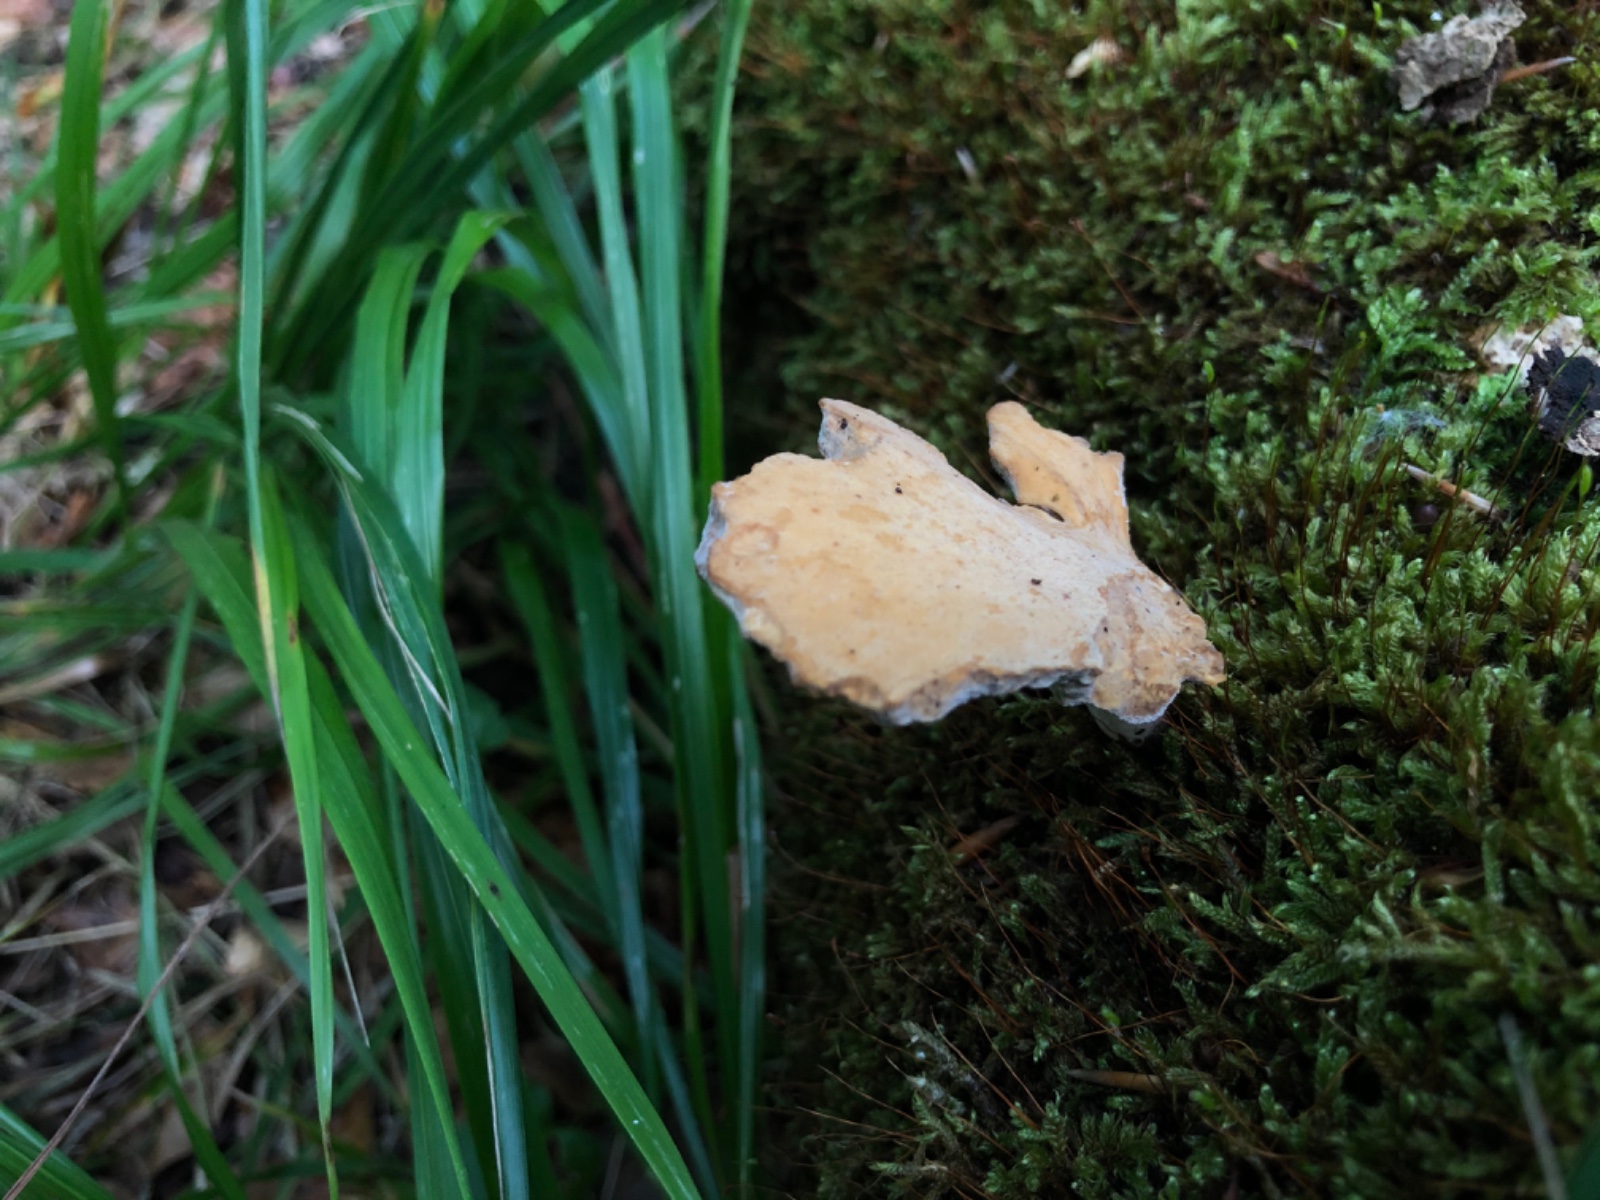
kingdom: Fungi
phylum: Basidiomycota
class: Agaricomycetes
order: Polyporales
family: Polyporaceae
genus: Cerioporus
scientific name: Cerioporus varius
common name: foranderlig stilkporesvamp
